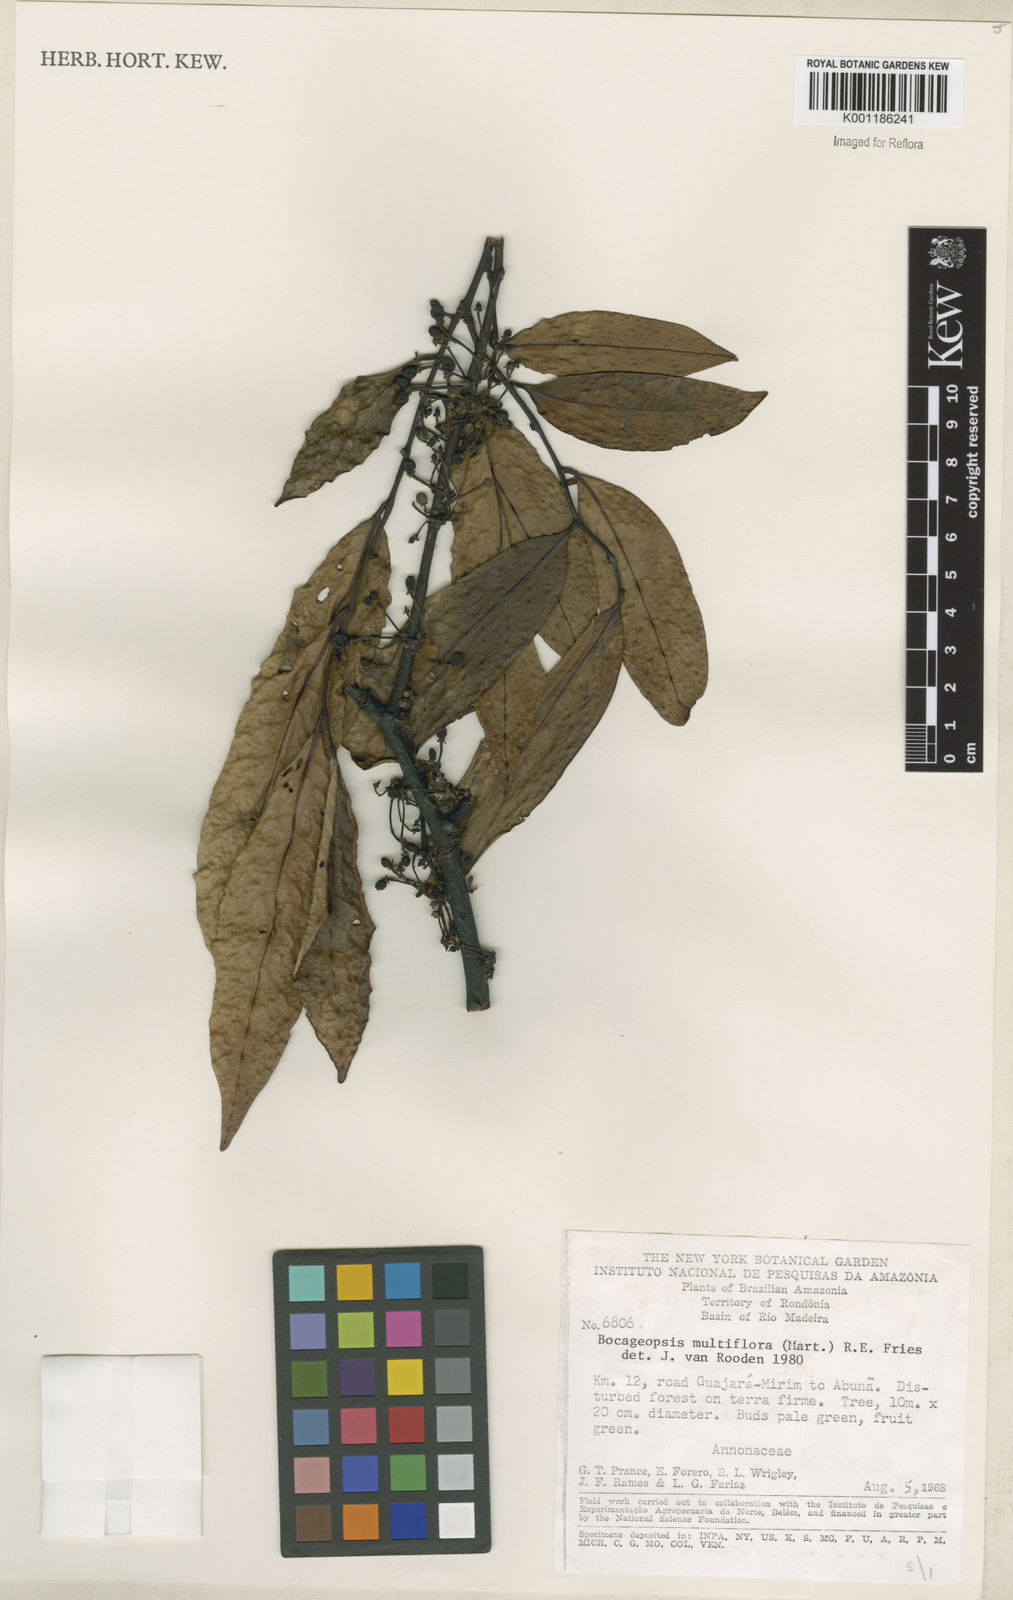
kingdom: Plantae
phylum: Tracheophyta
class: Magnoliopsida
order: Magnoliales
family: Annonaceae
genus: Bocageopsis
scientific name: Bocageopsis multiflora
